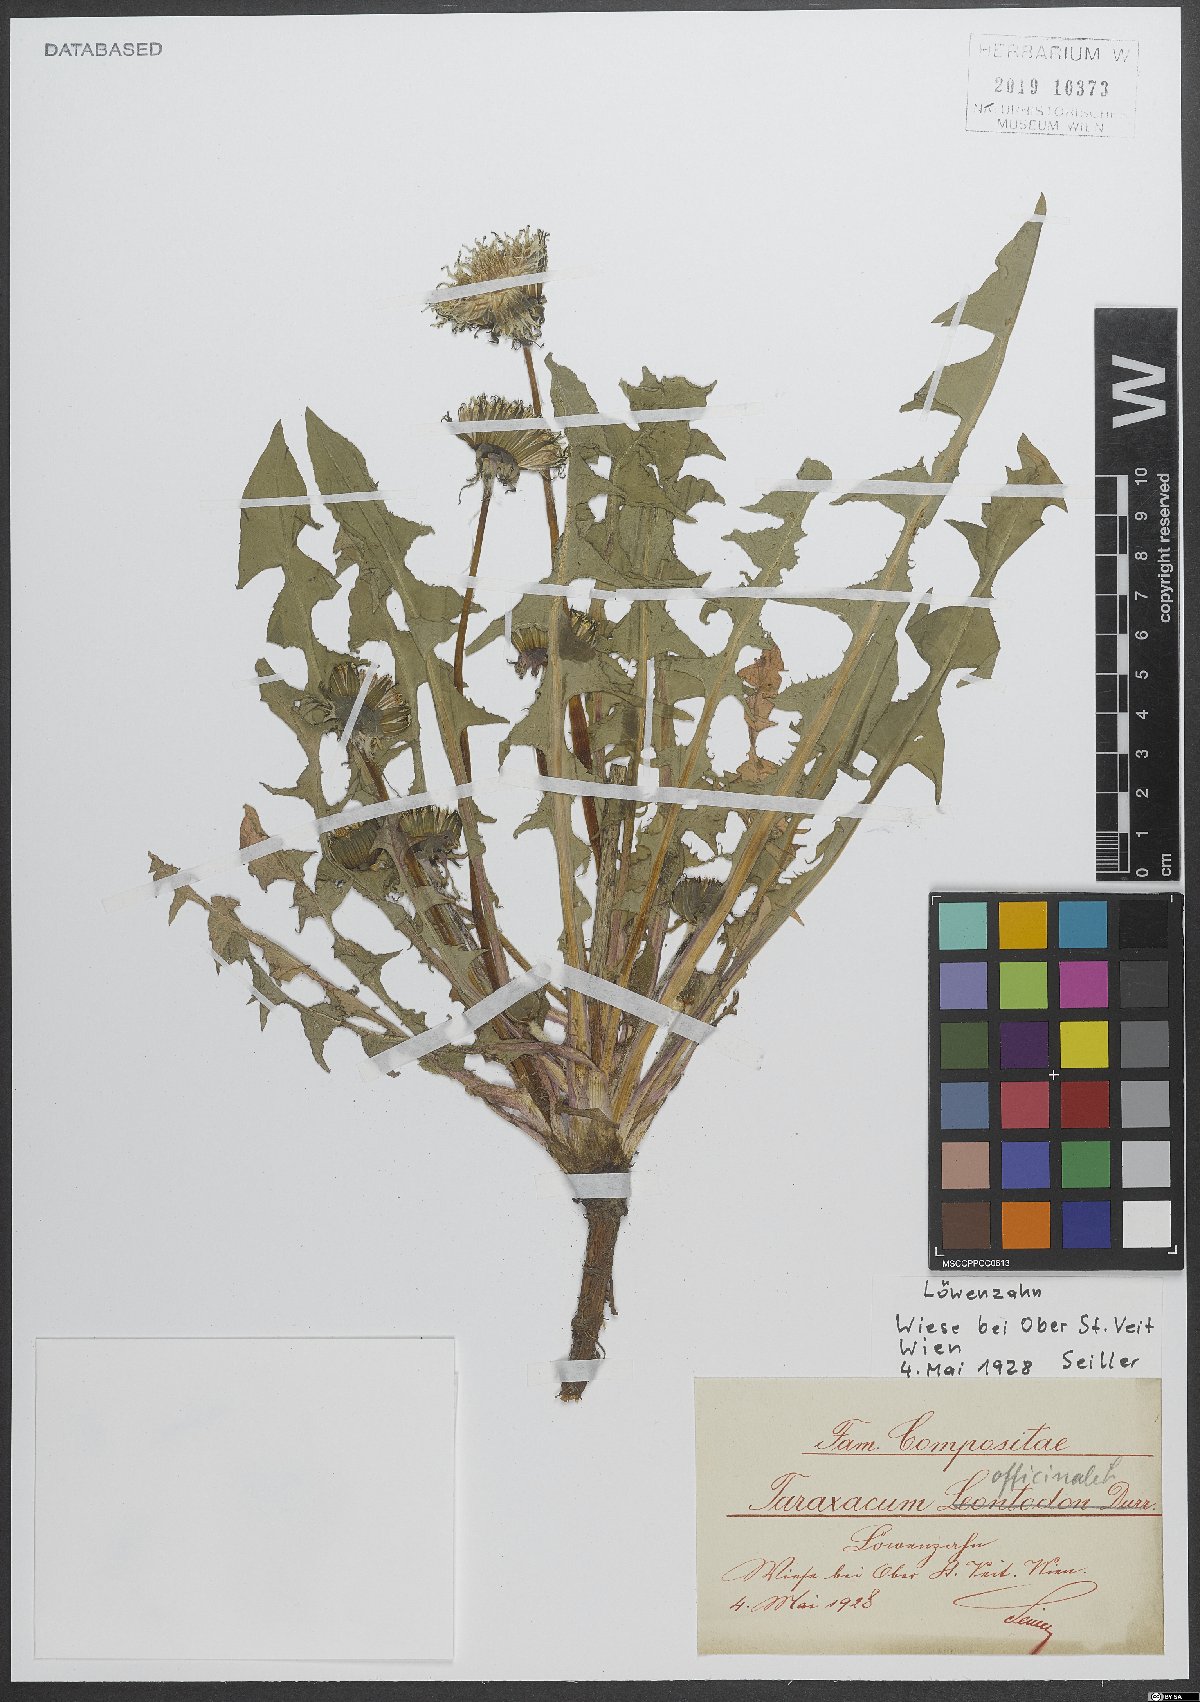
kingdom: Plantae
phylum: Tracheophyta
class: Magnoliopsida
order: Asterales
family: Asteraceae
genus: Taraxacum
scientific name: Taraxacum officinale
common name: Common dandelion
